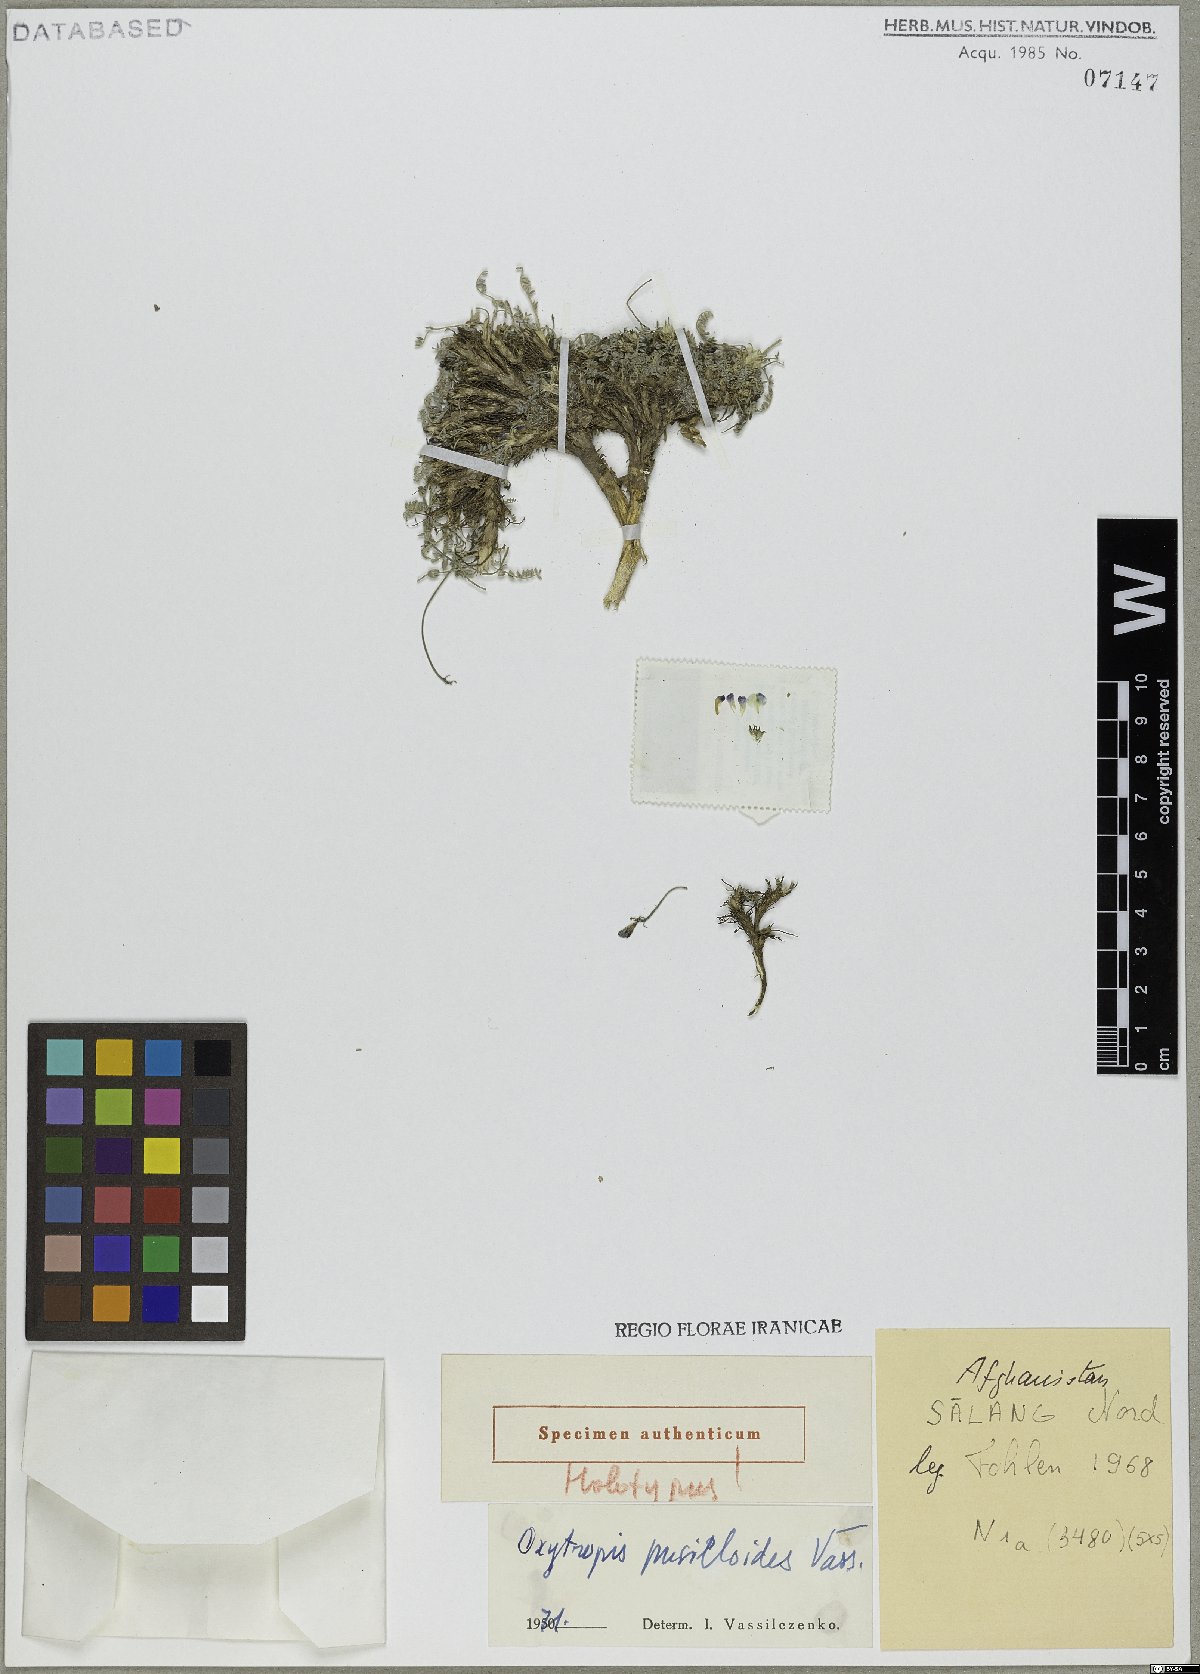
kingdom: Plantae
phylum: Tracheophyta
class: Magnoliopsida
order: Fabales
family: Fabaceae
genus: Astragalus
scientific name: Astragalus daenensis
